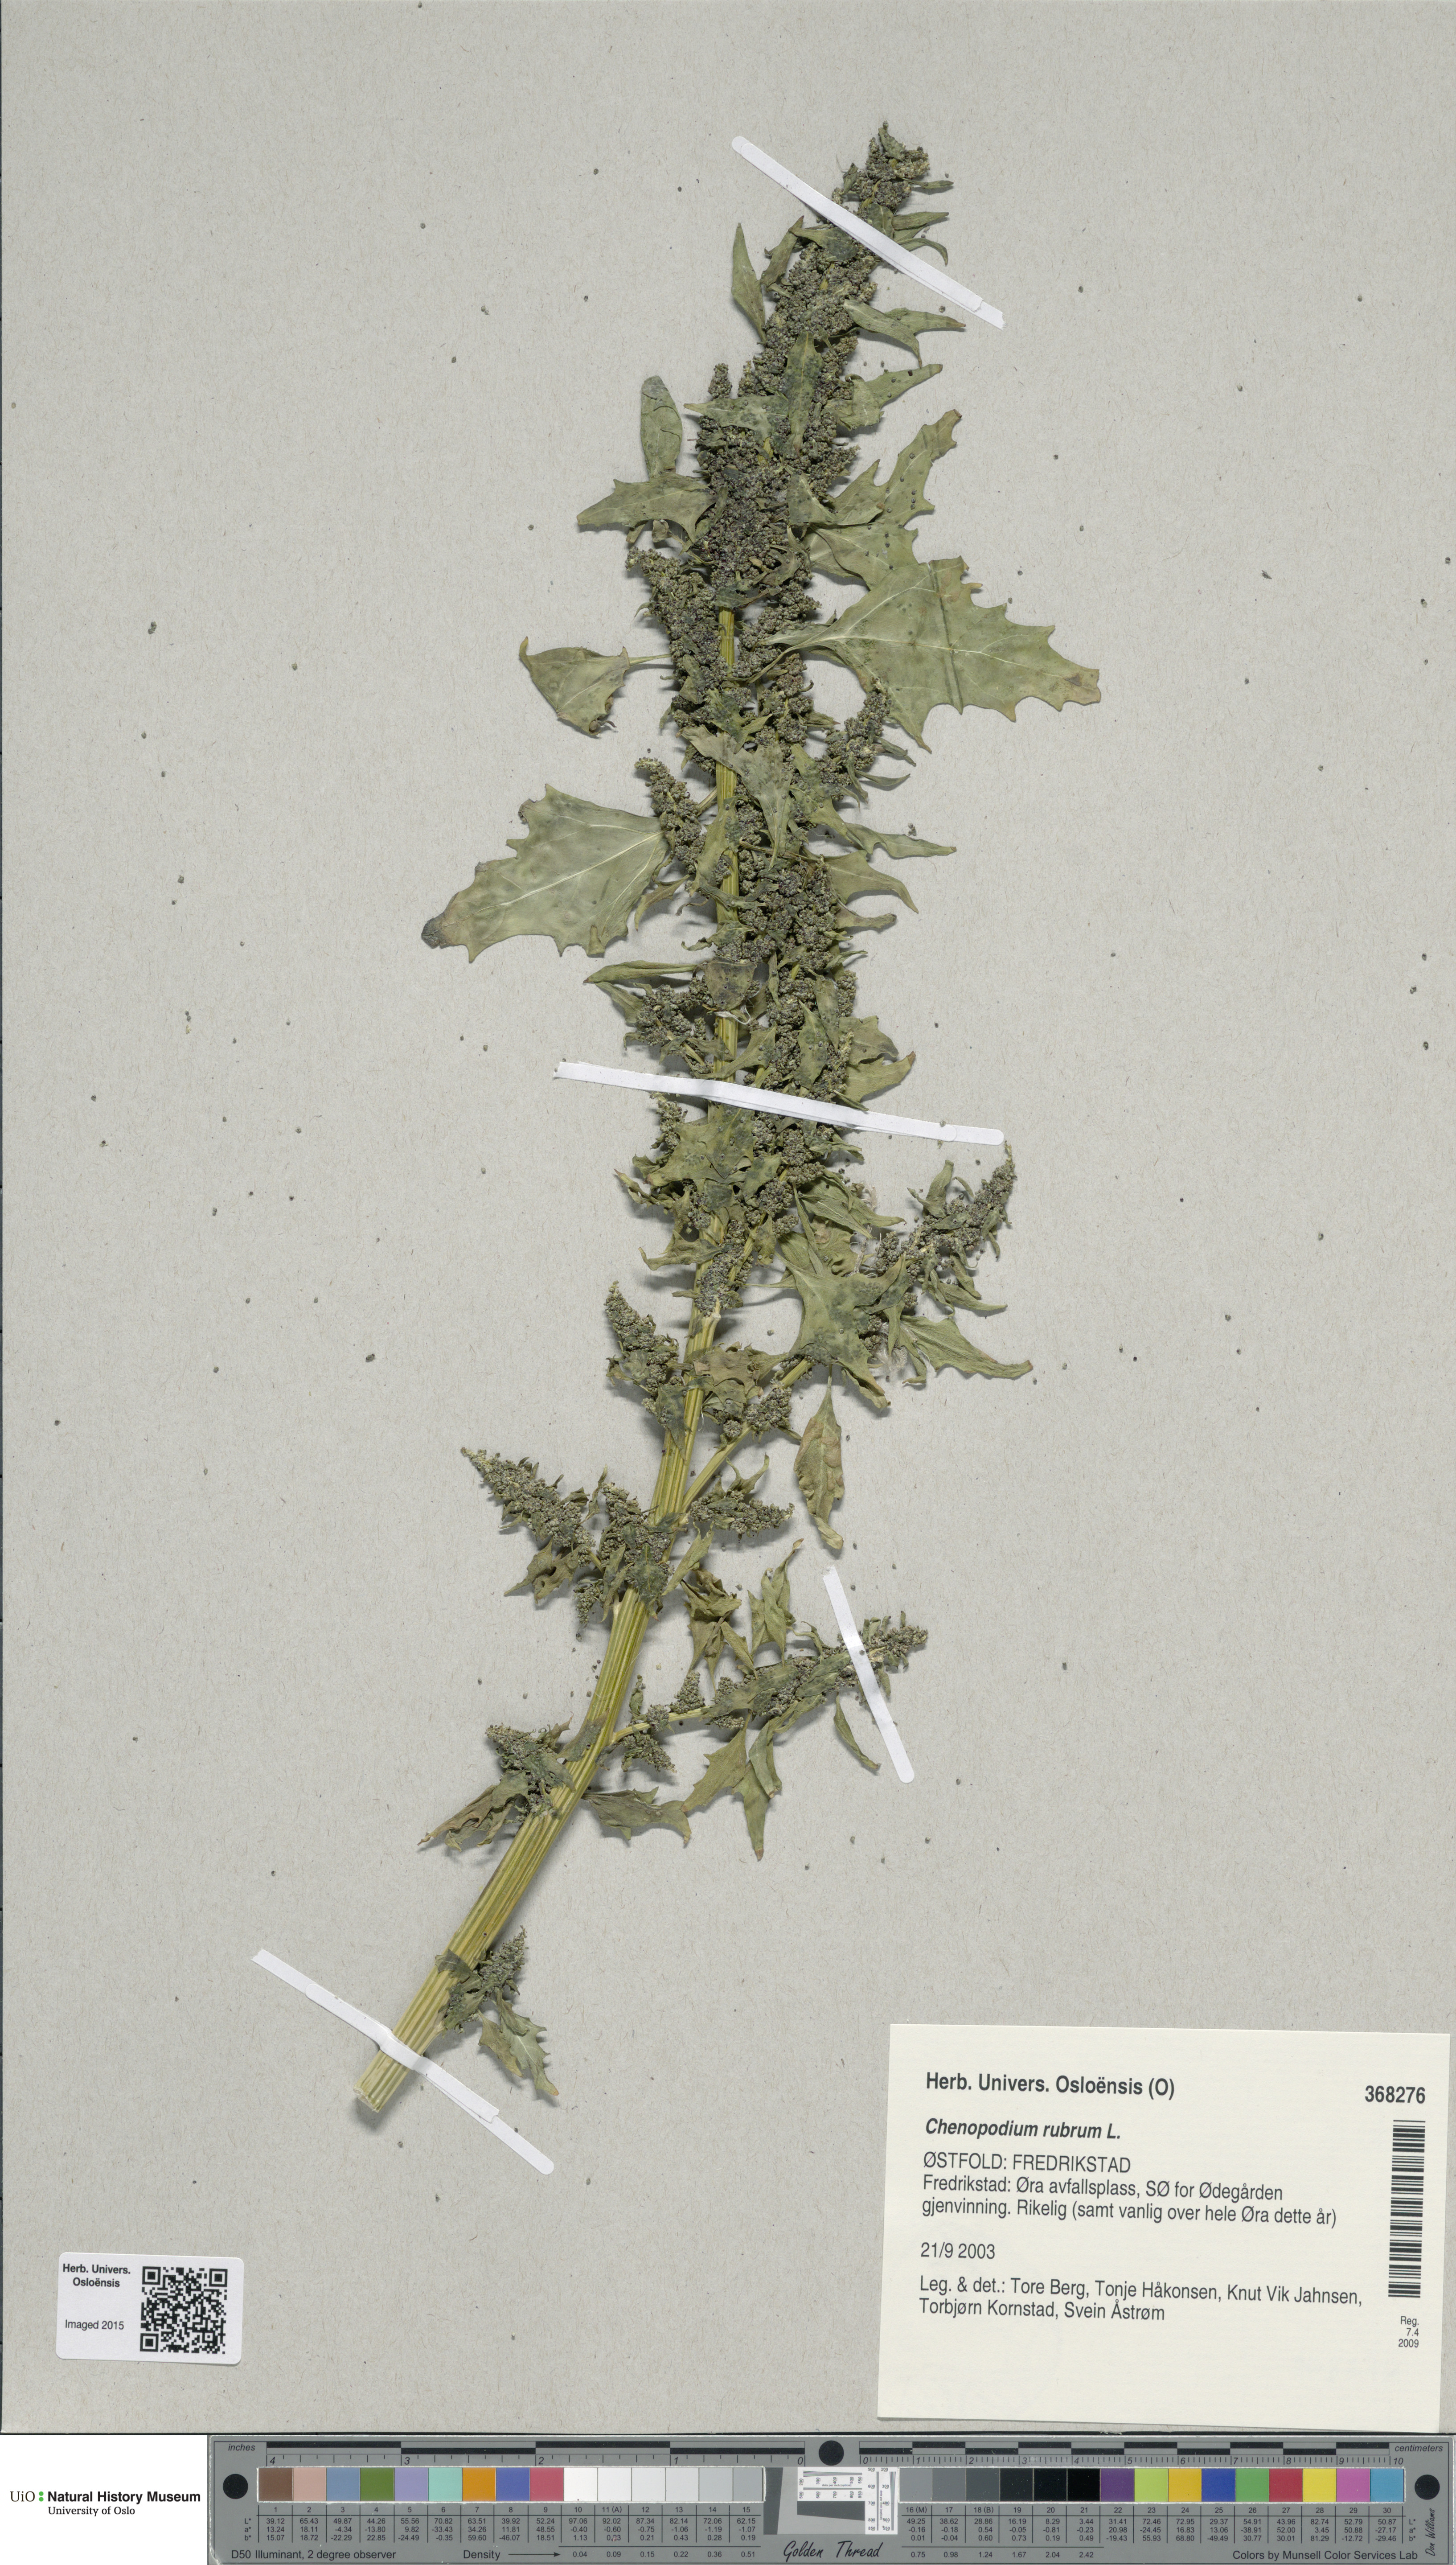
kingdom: Plantae
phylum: Tracheophyta
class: Magnoliopsida
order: Caryophyllales
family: Amaranthaceae
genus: Oxybasis
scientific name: Oxybasis rubra
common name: Red goosefoot
